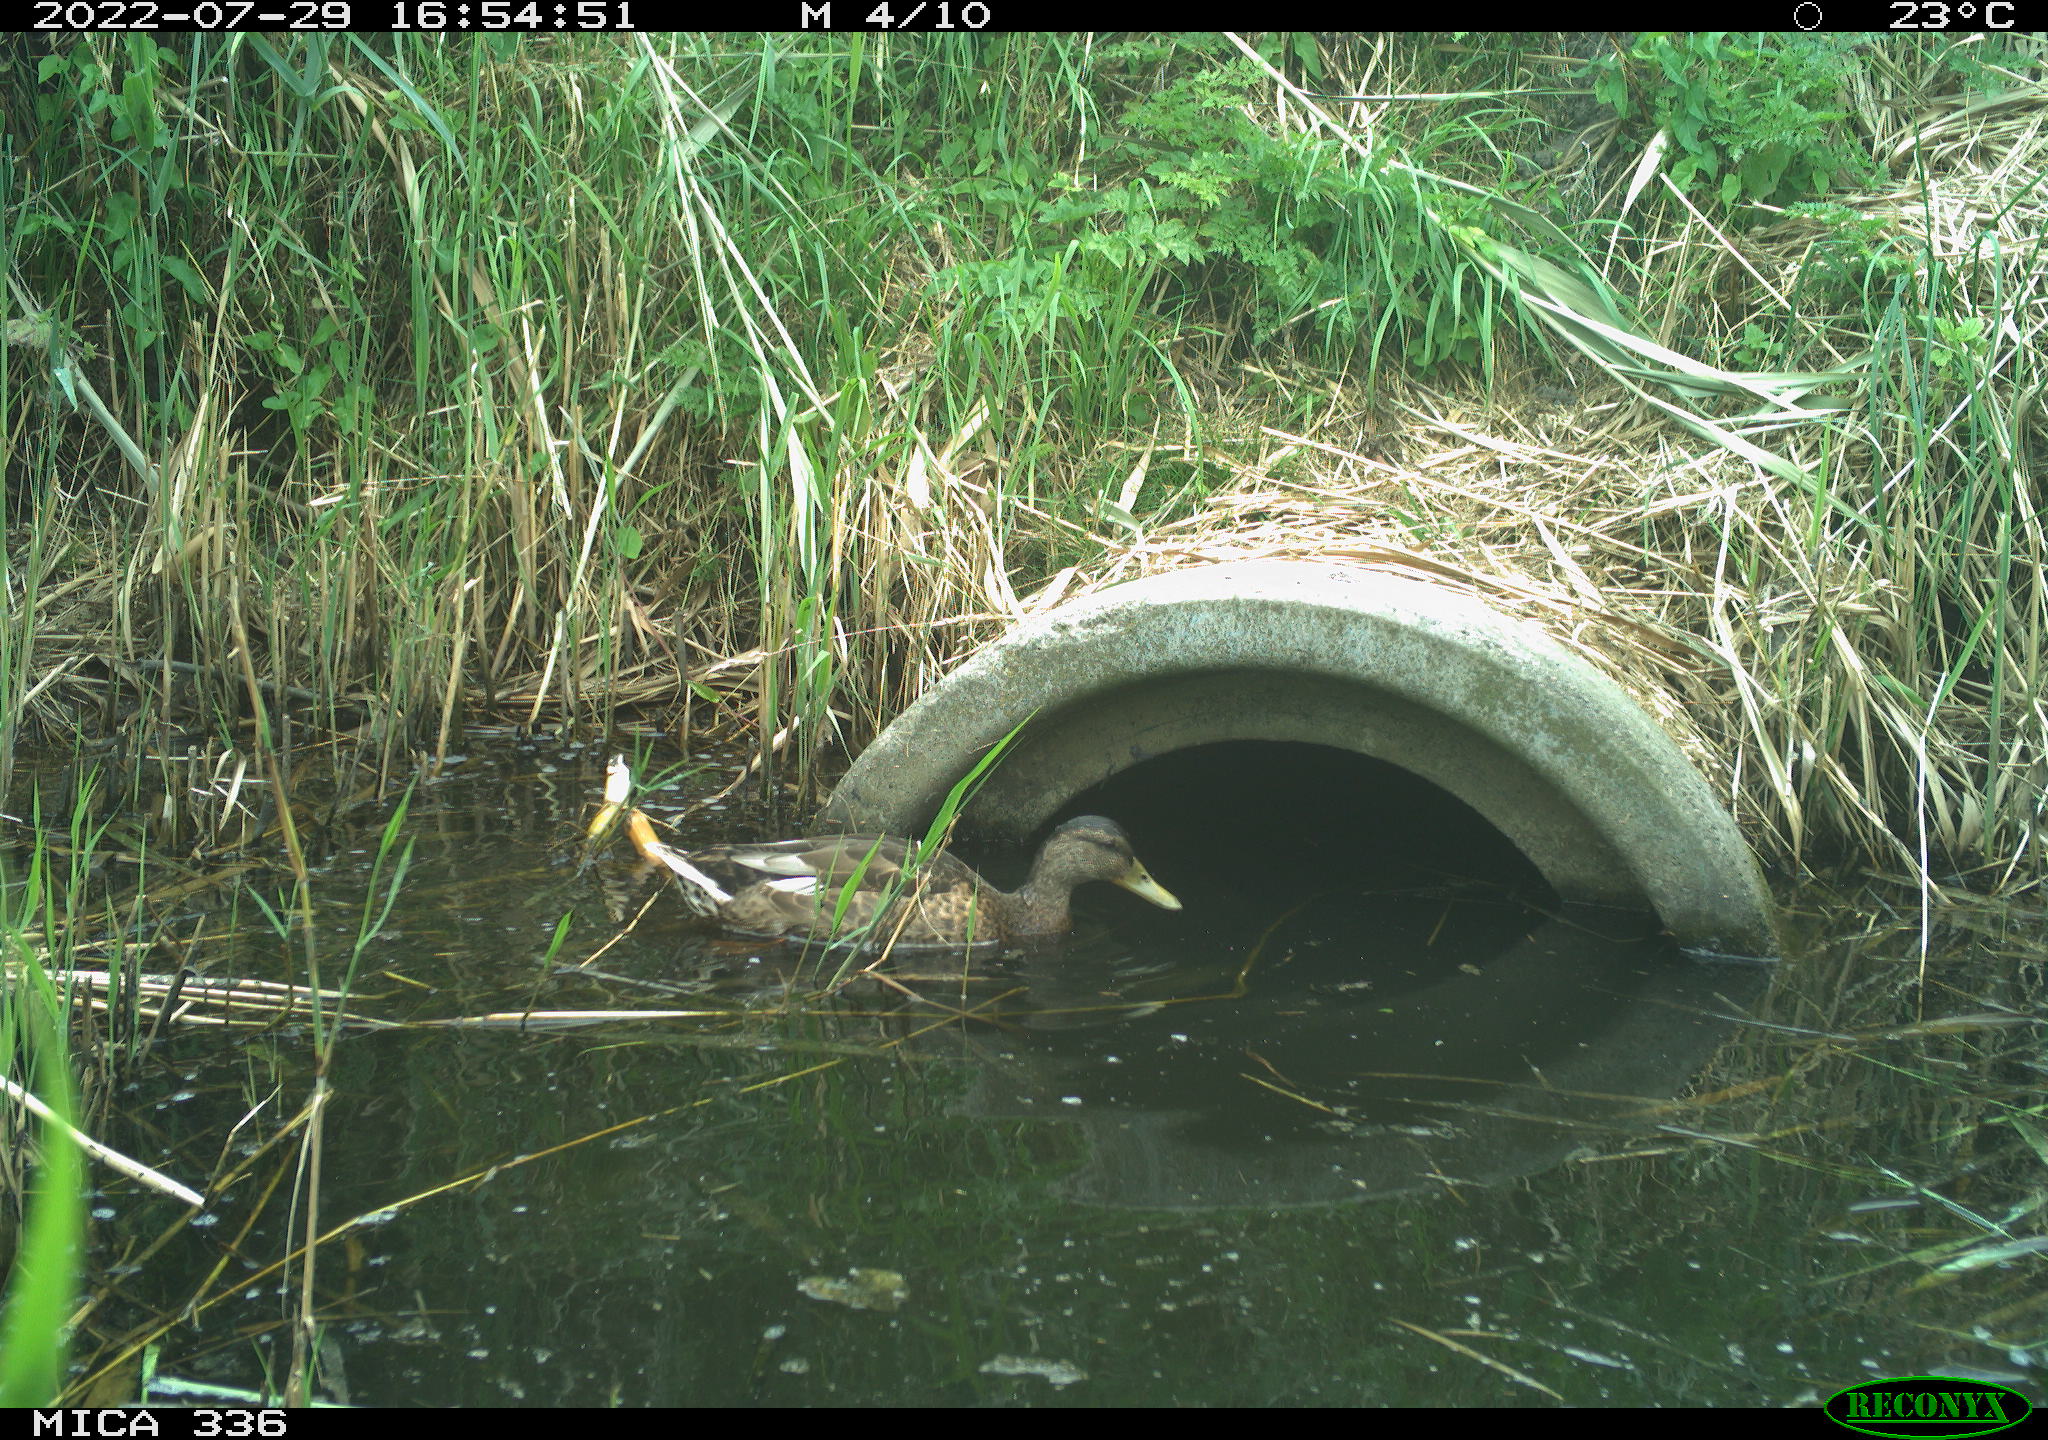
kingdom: Animalia
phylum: Chordata
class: Aves
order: Anseriformes
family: Anatidae
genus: Anas
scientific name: Anas platyrhynchos
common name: Mallard
